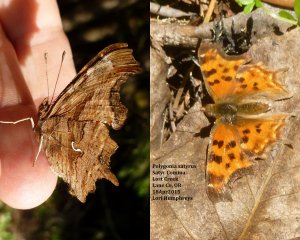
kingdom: Animalia
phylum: Arthropoda
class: Insecta
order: Lepidoptera
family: Nymphalidae
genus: Polygonia
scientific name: Polygonia satyrus
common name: Satyr Comma
